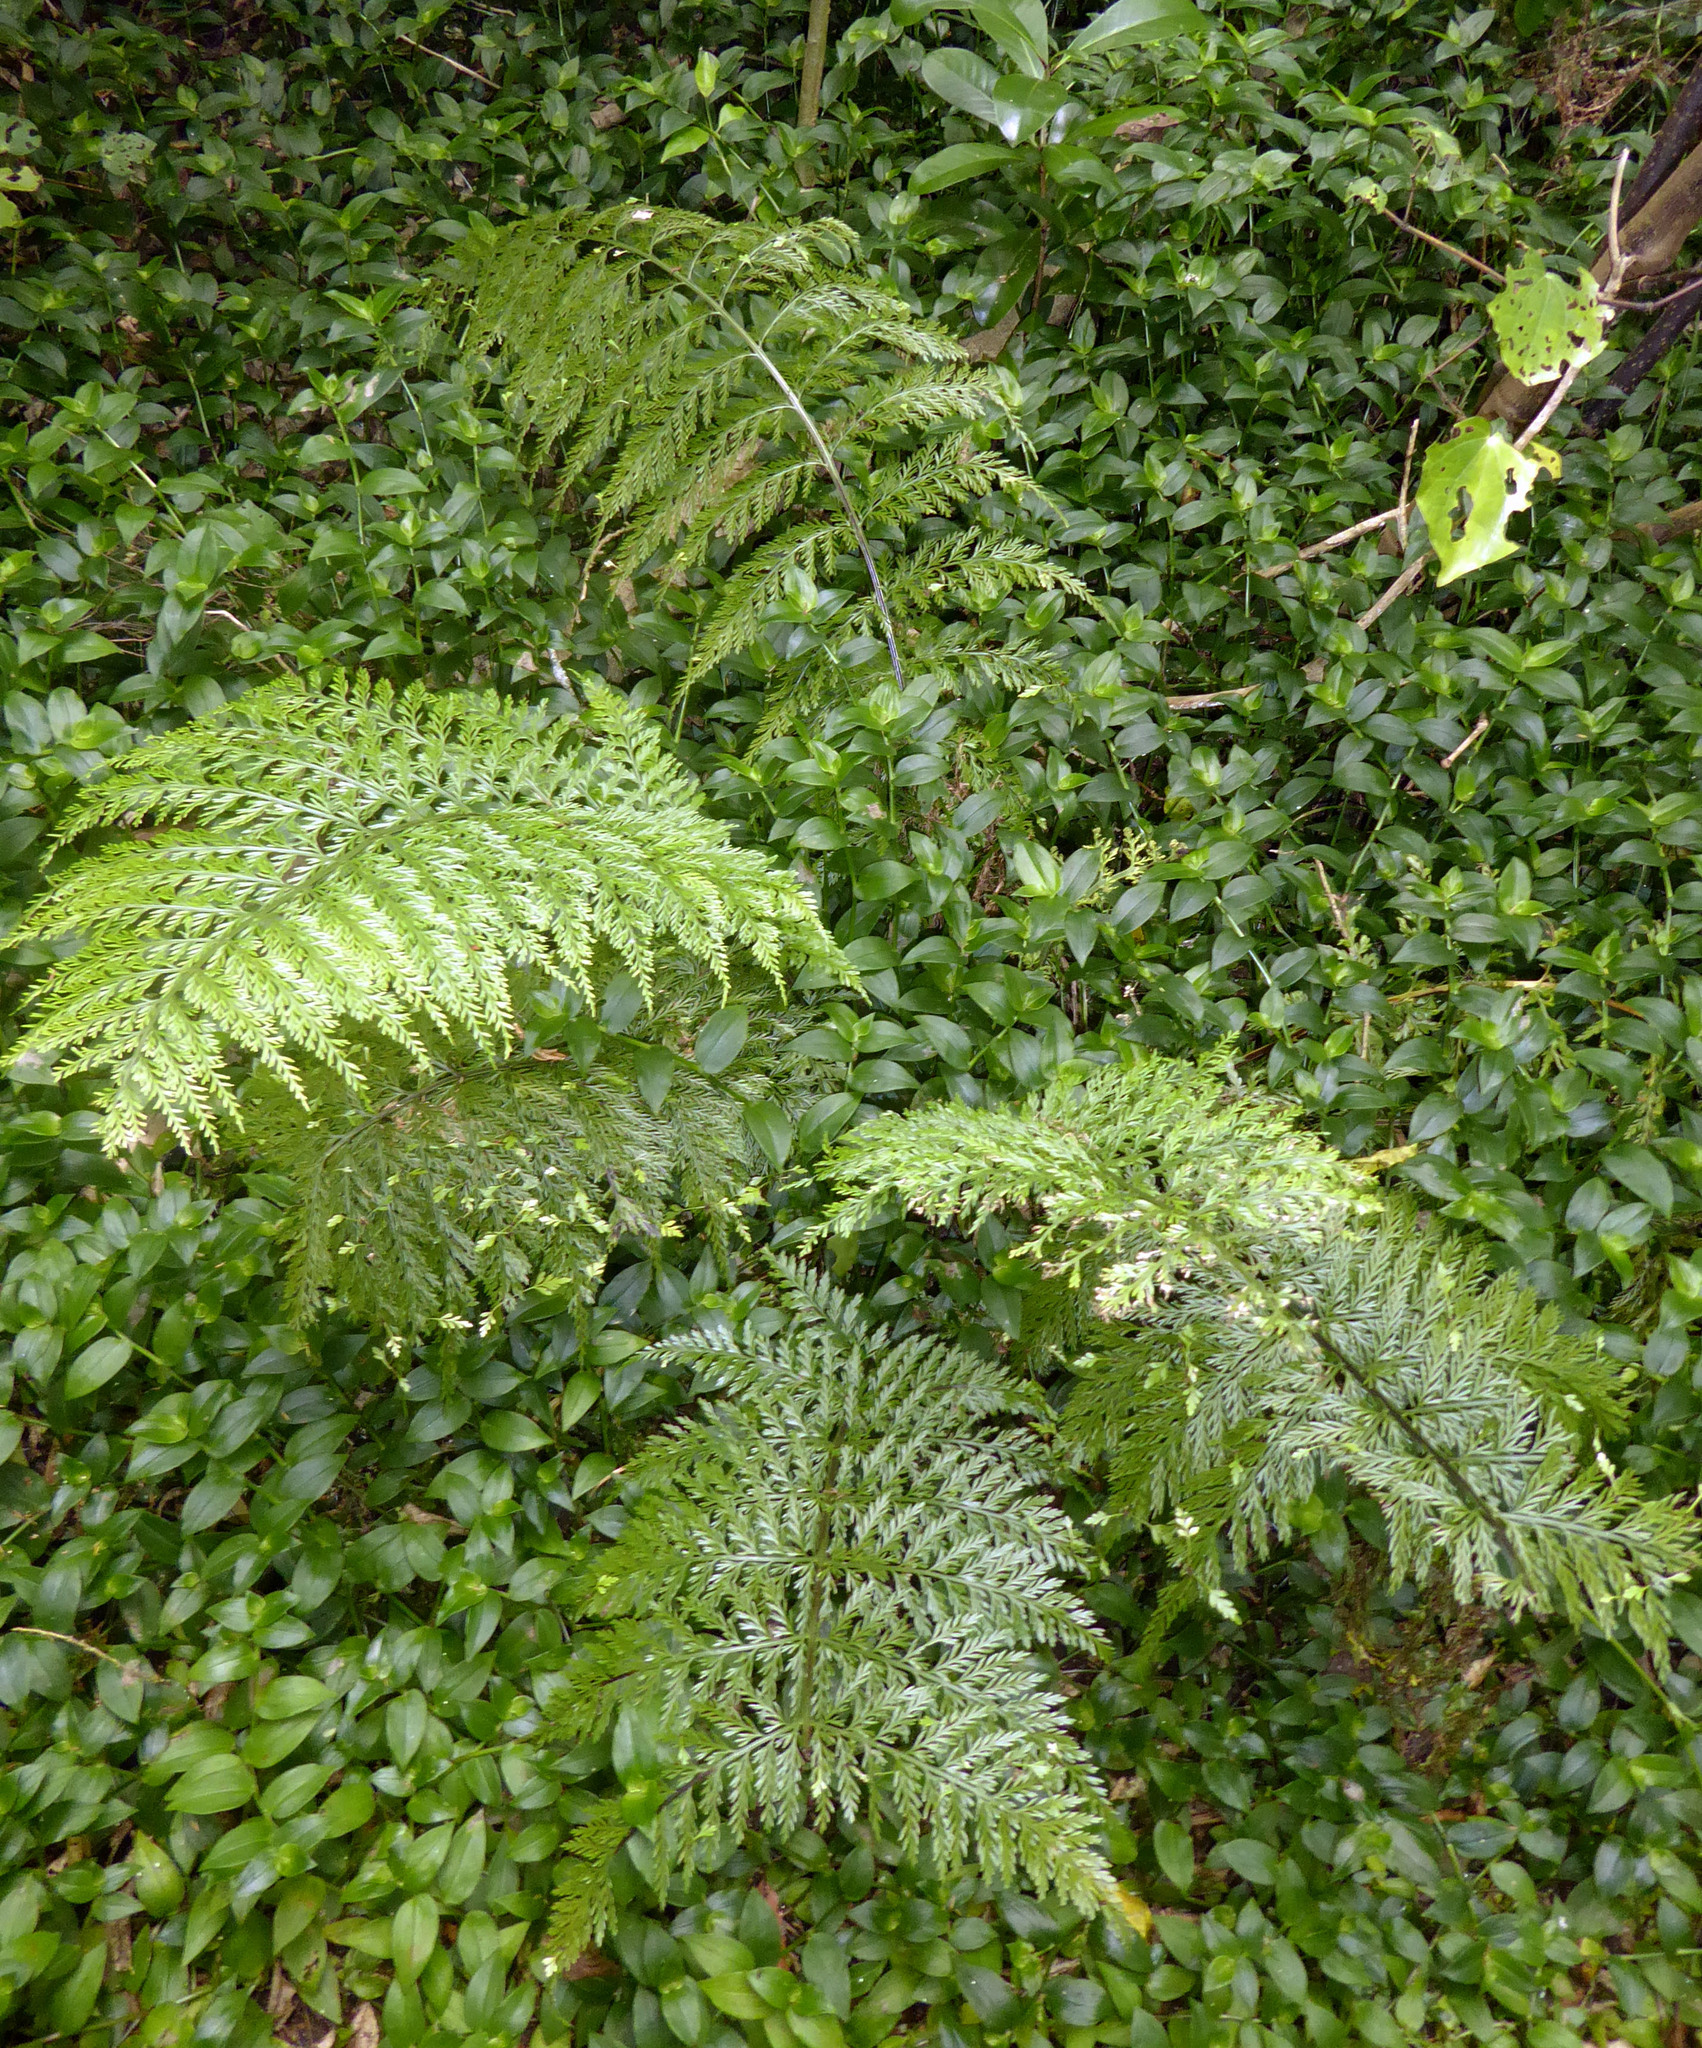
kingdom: Plantae
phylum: Tracheophyta
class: Polypodiopsida
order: Polypodiales
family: Aspleniaceae
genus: Asplenium
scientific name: Asplenium lucrosum
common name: False hen-and-chickens fern
